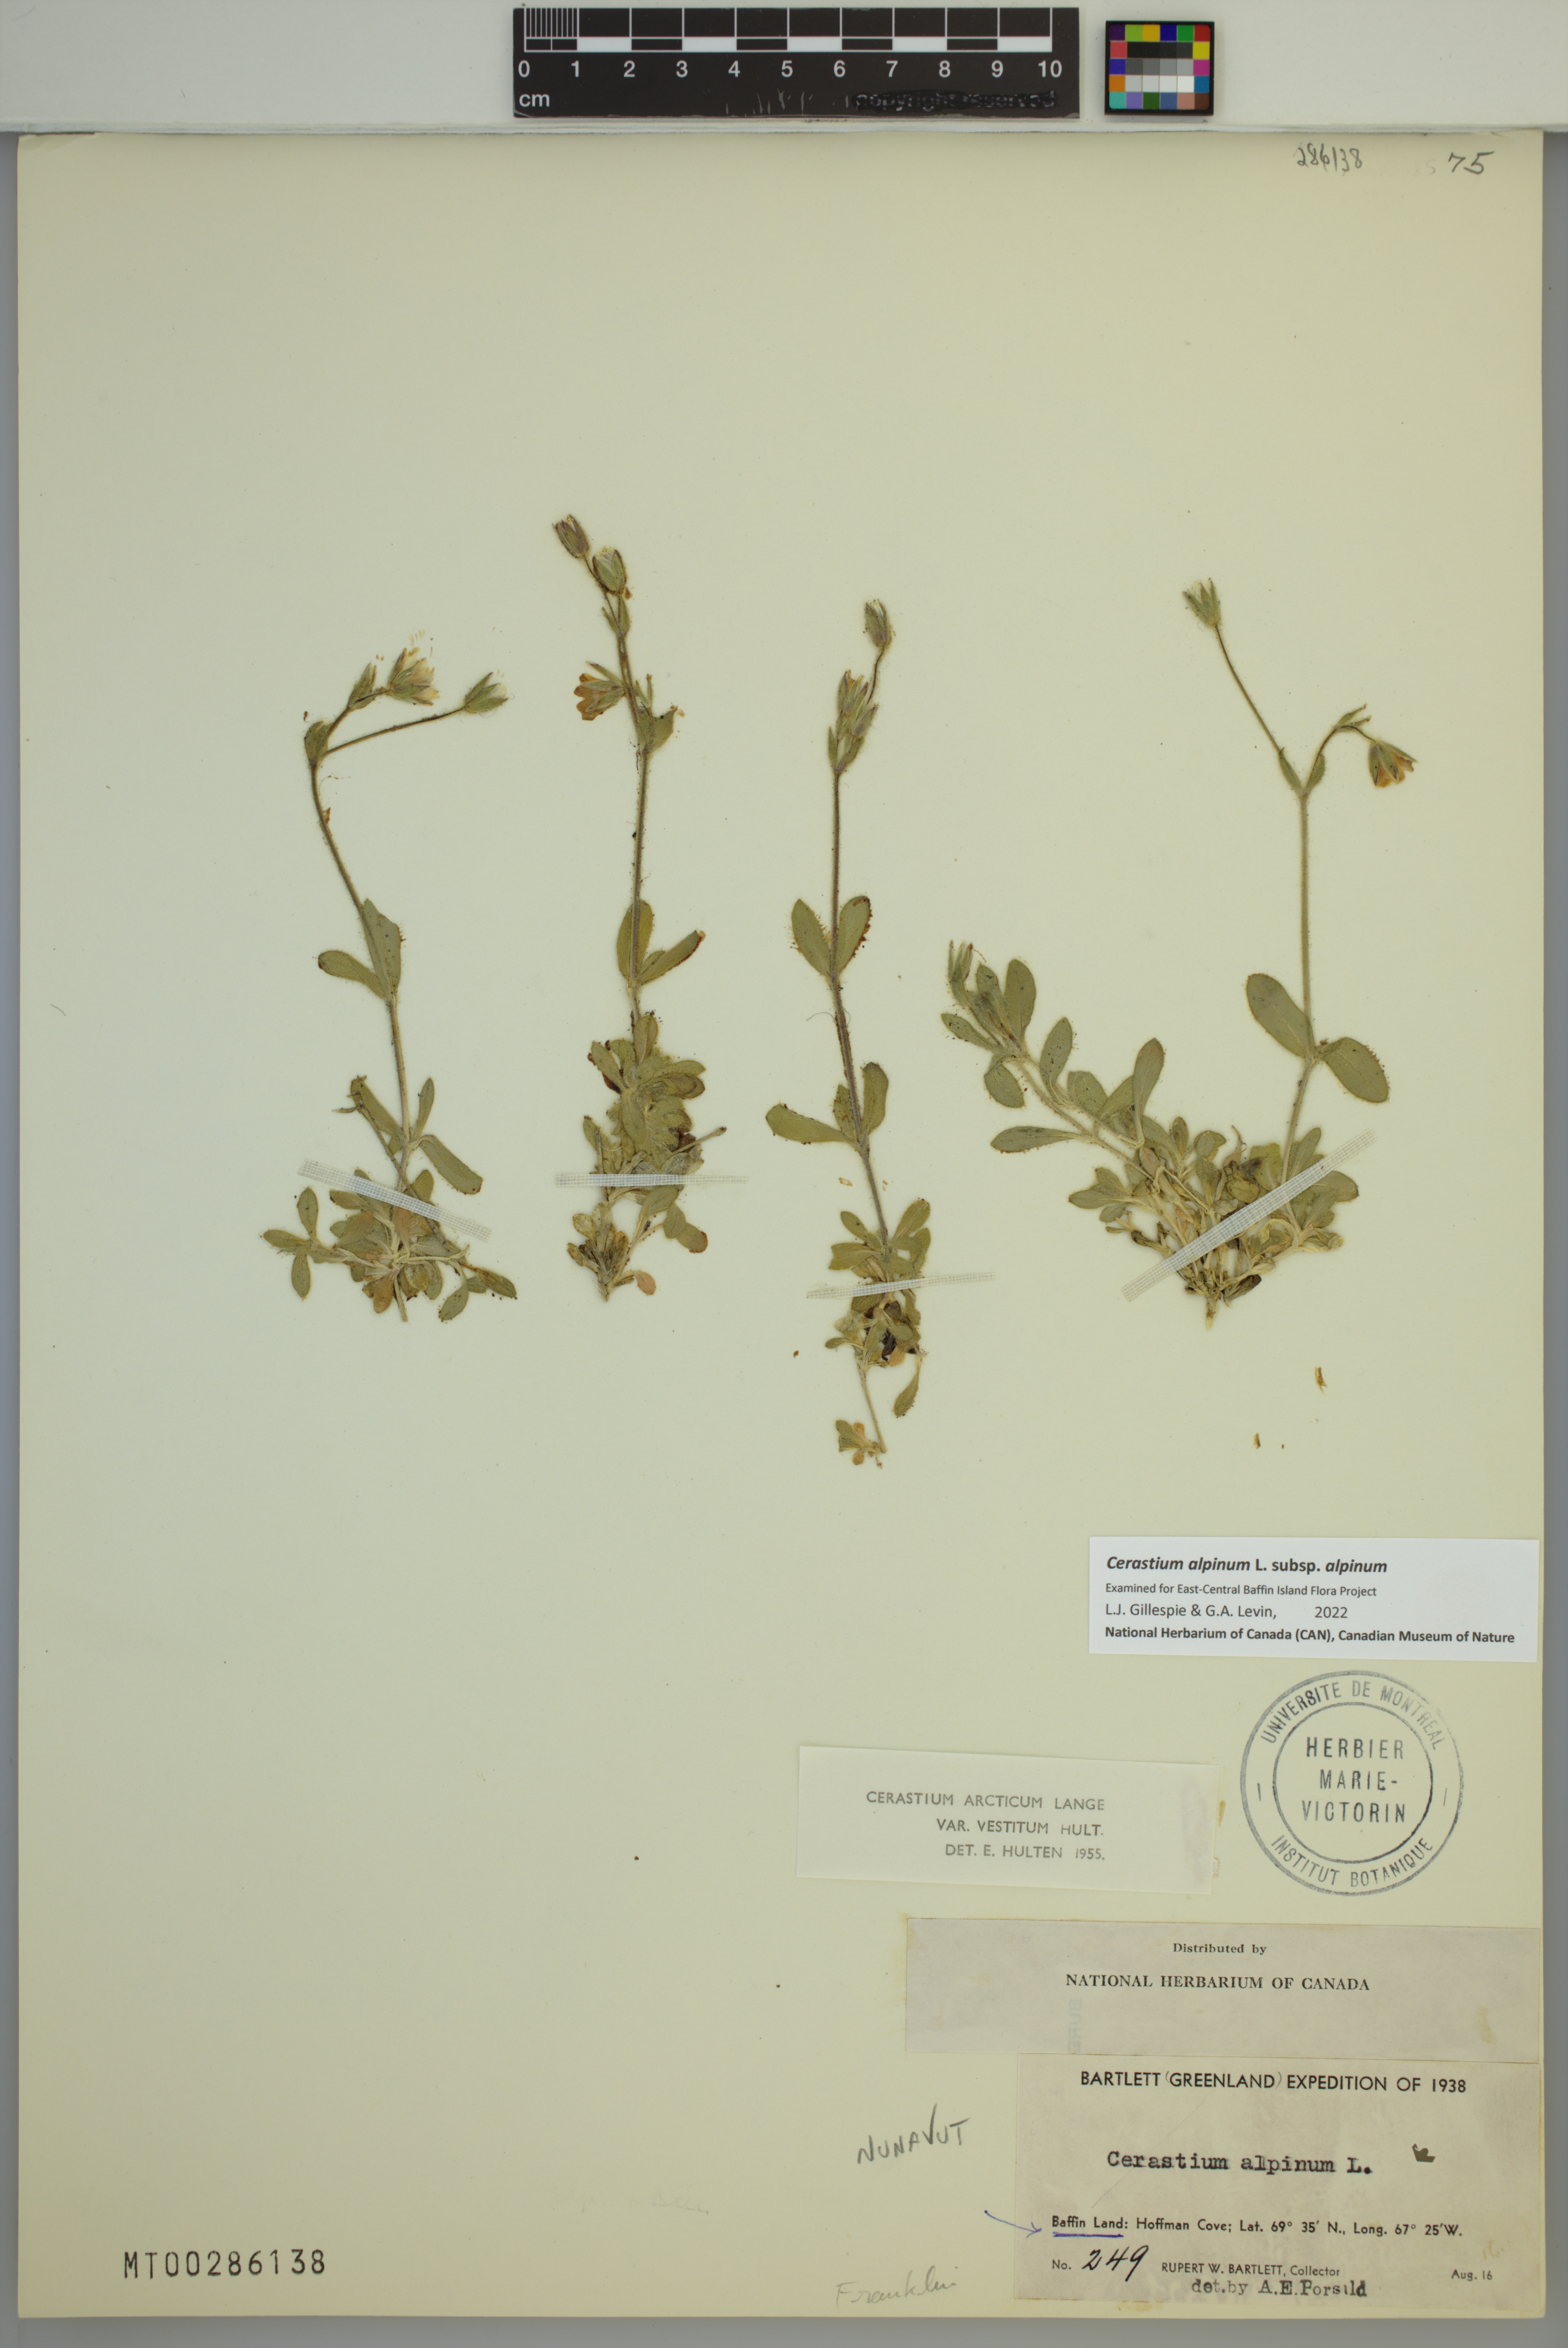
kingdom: Plantae
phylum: Tracheophyta
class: Magnoliopsida
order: Caryophyllales
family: Caryophyllaceae
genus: Cerastium
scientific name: Cerastium alpinum
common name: Alpine mouse-ear
